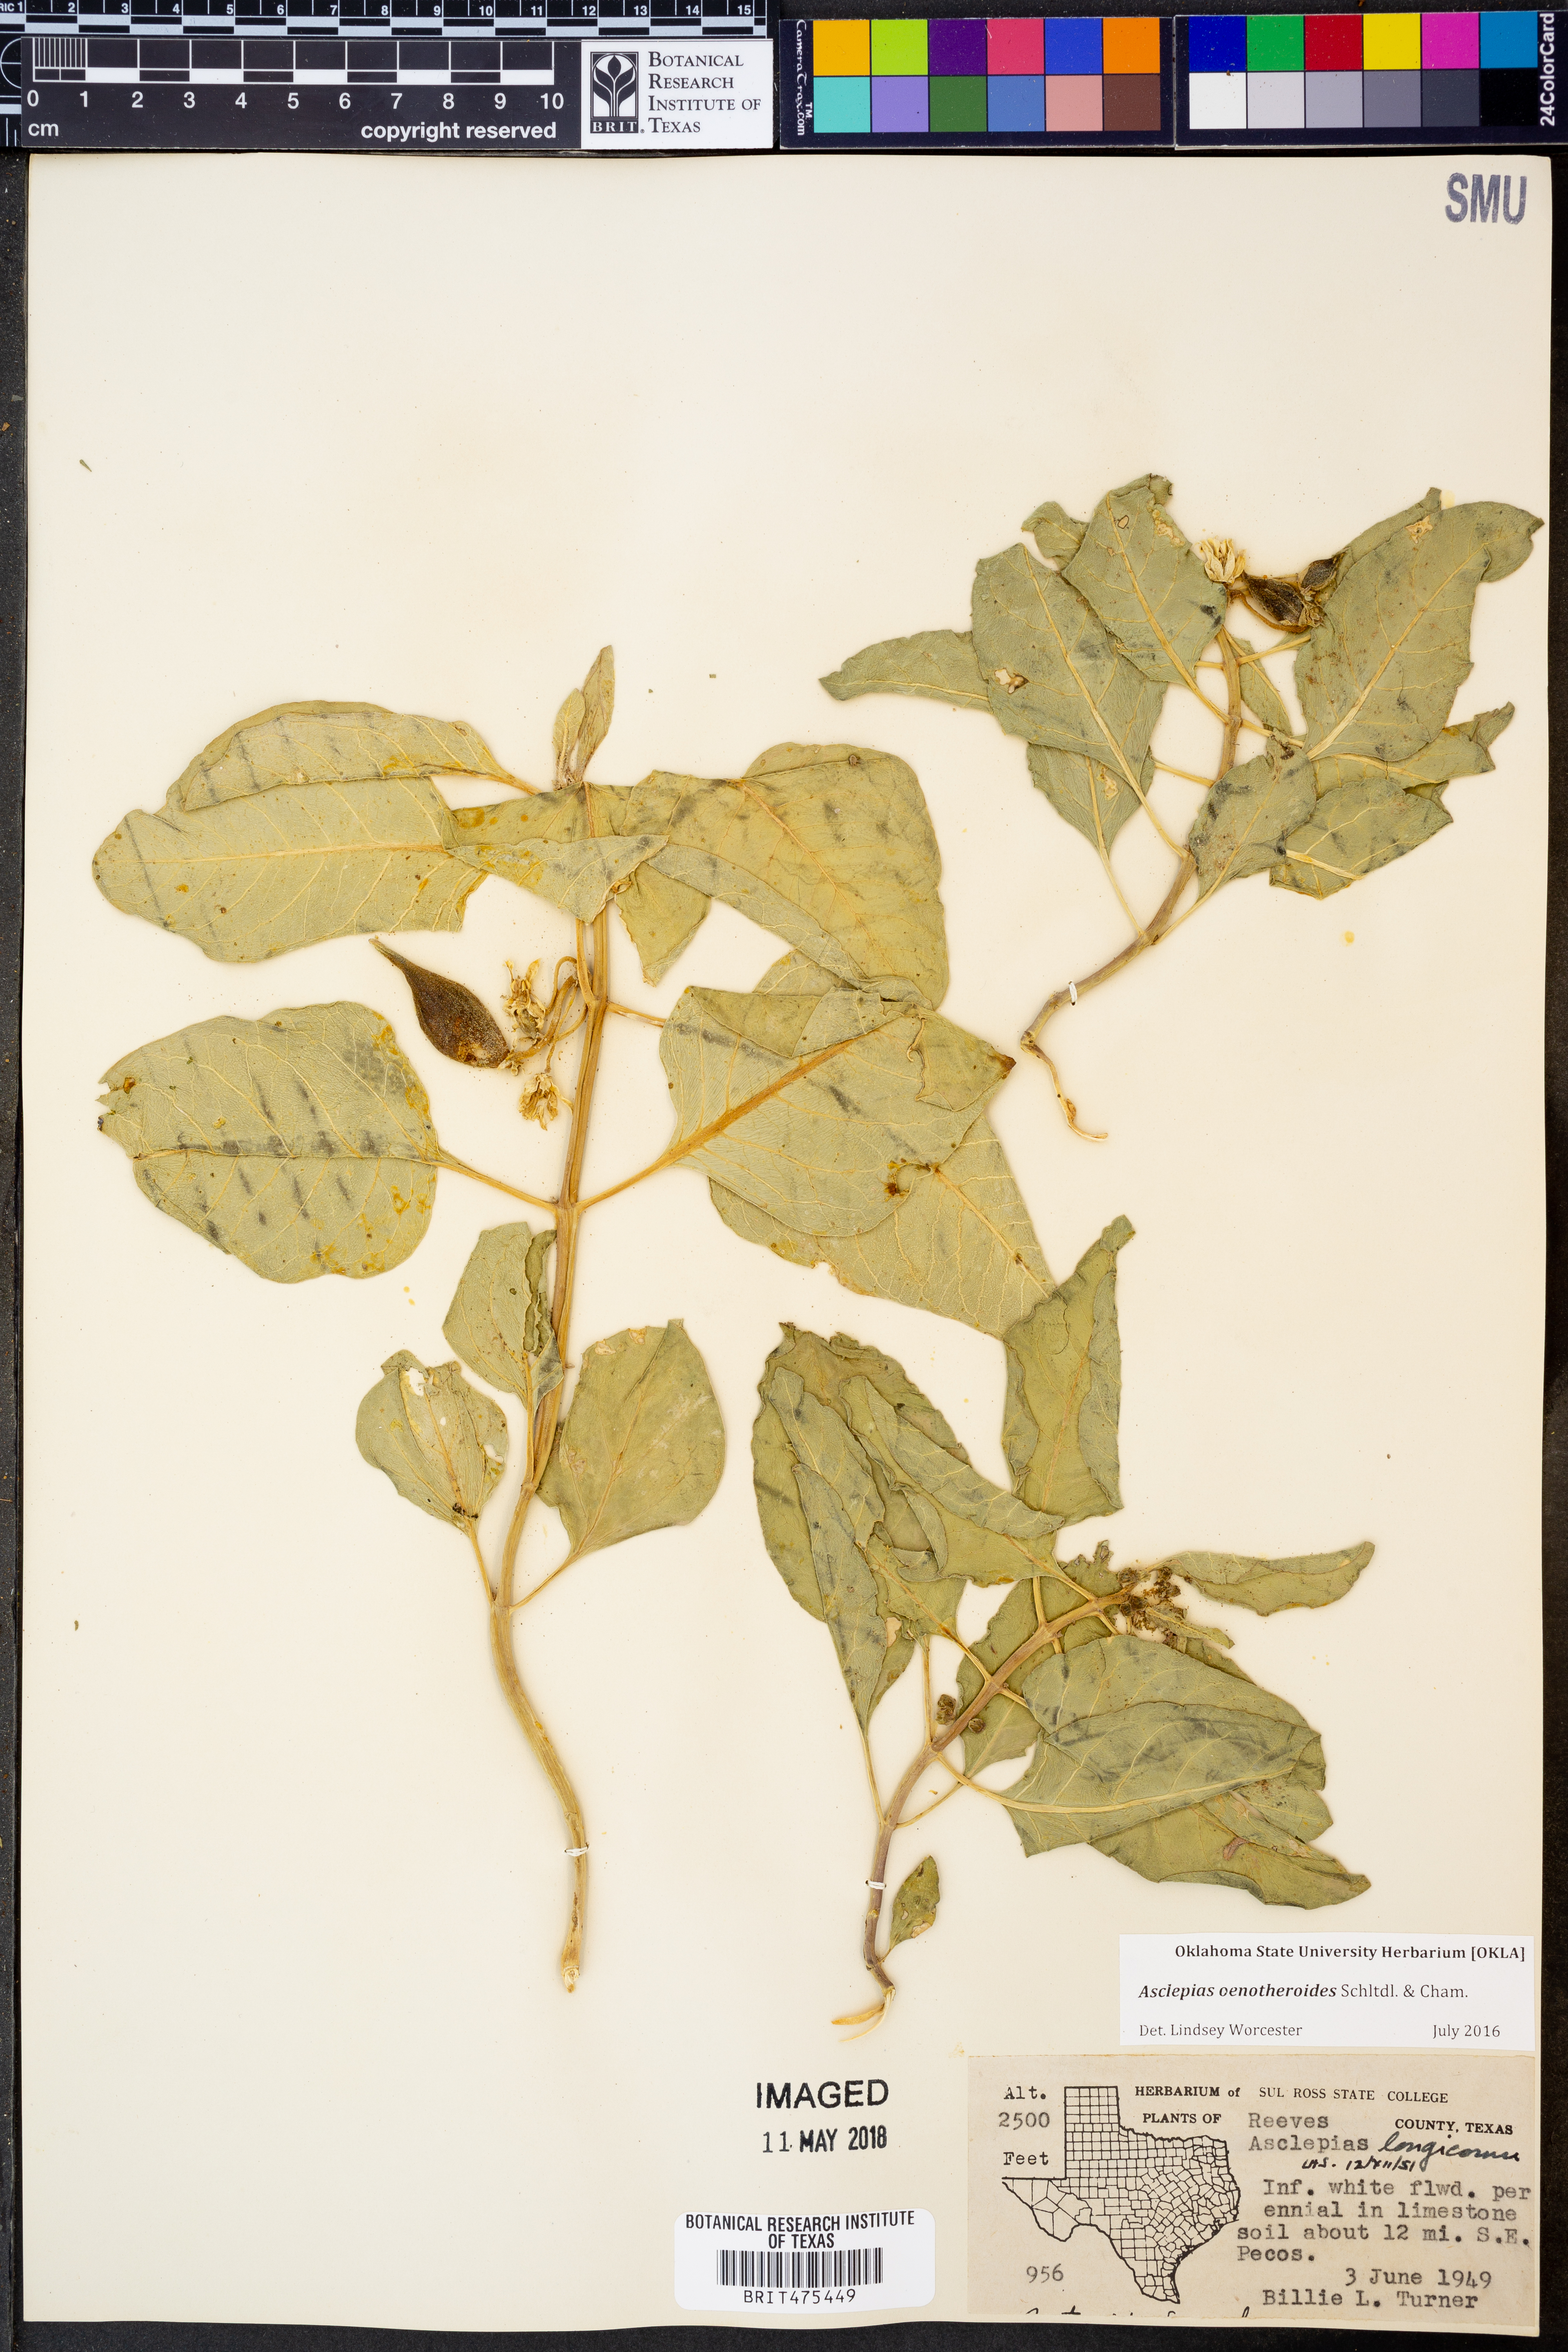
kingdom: Plantae
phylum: Tracheophyta
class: Magnoliopsida
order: Gentianales
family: Apocynaceae
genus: Asclepias
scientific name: Asclepias oenotheroides
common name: Zizotes milkweed
